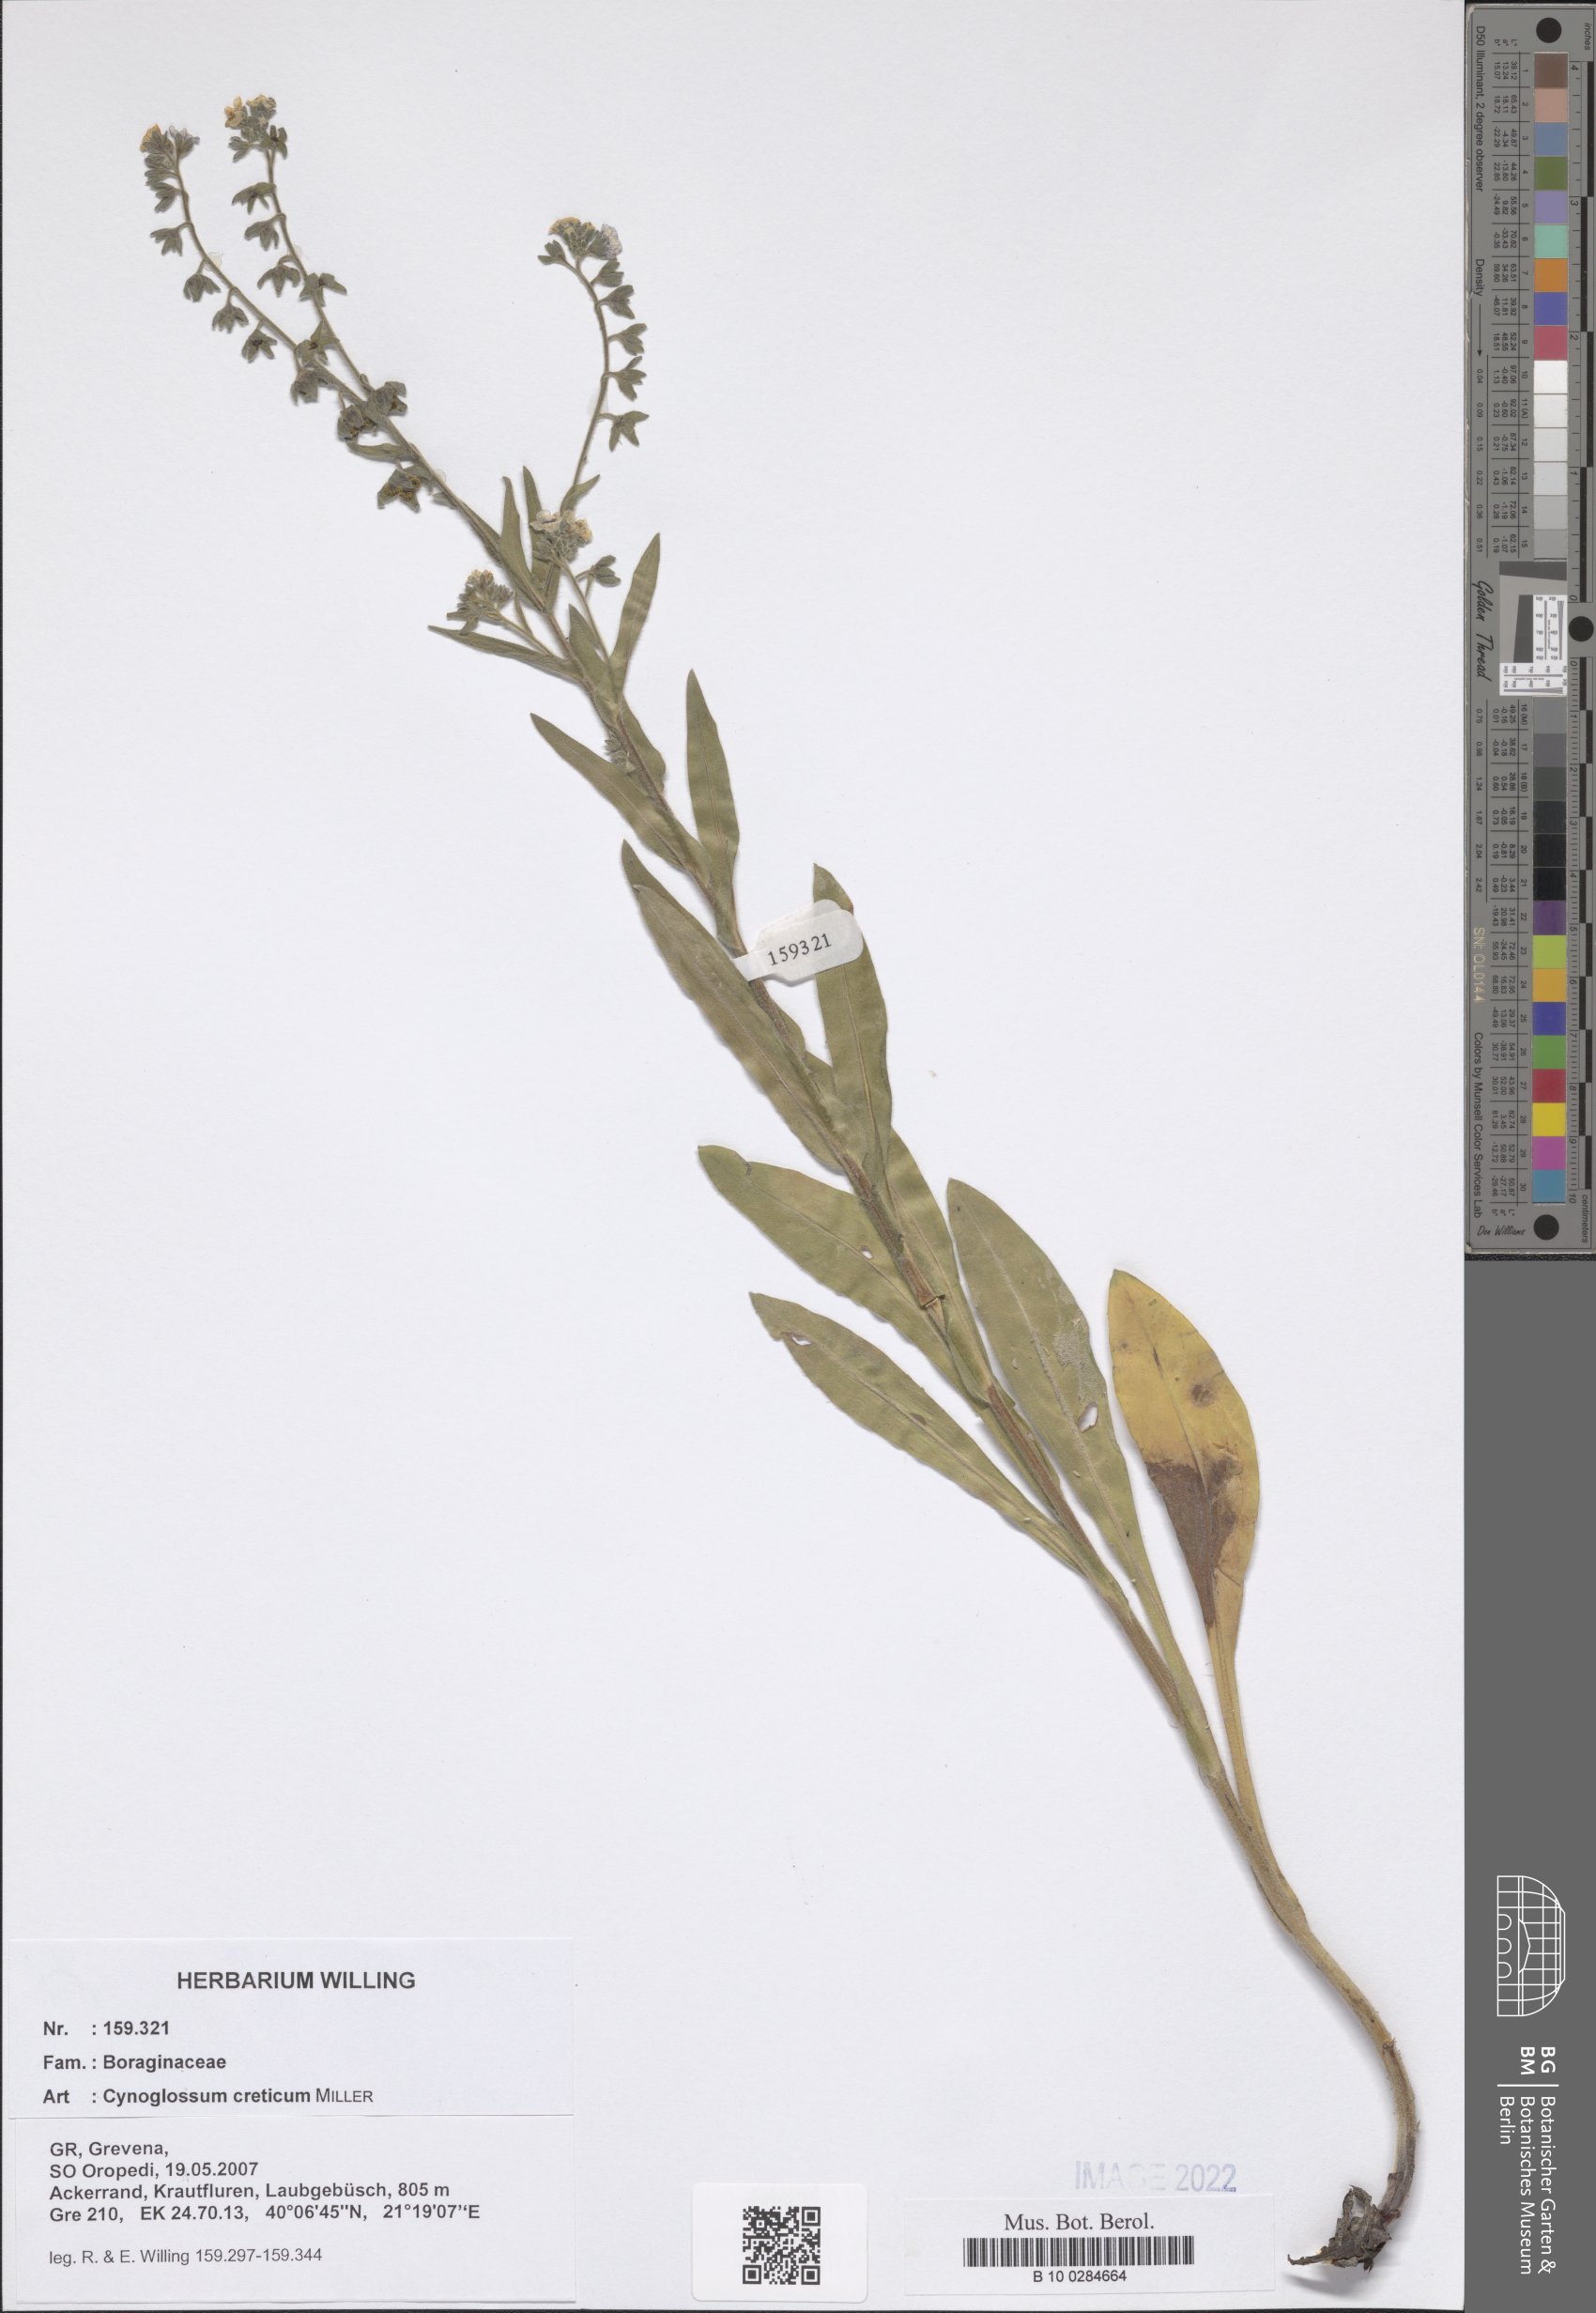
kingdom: Plantae
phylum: Tracheophyta
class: Magnoliopsida
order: Boraginales
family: Boraginaceae
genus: Cynoglossum
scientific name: Cynoglossum creticum
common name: Blue hound's tongue
